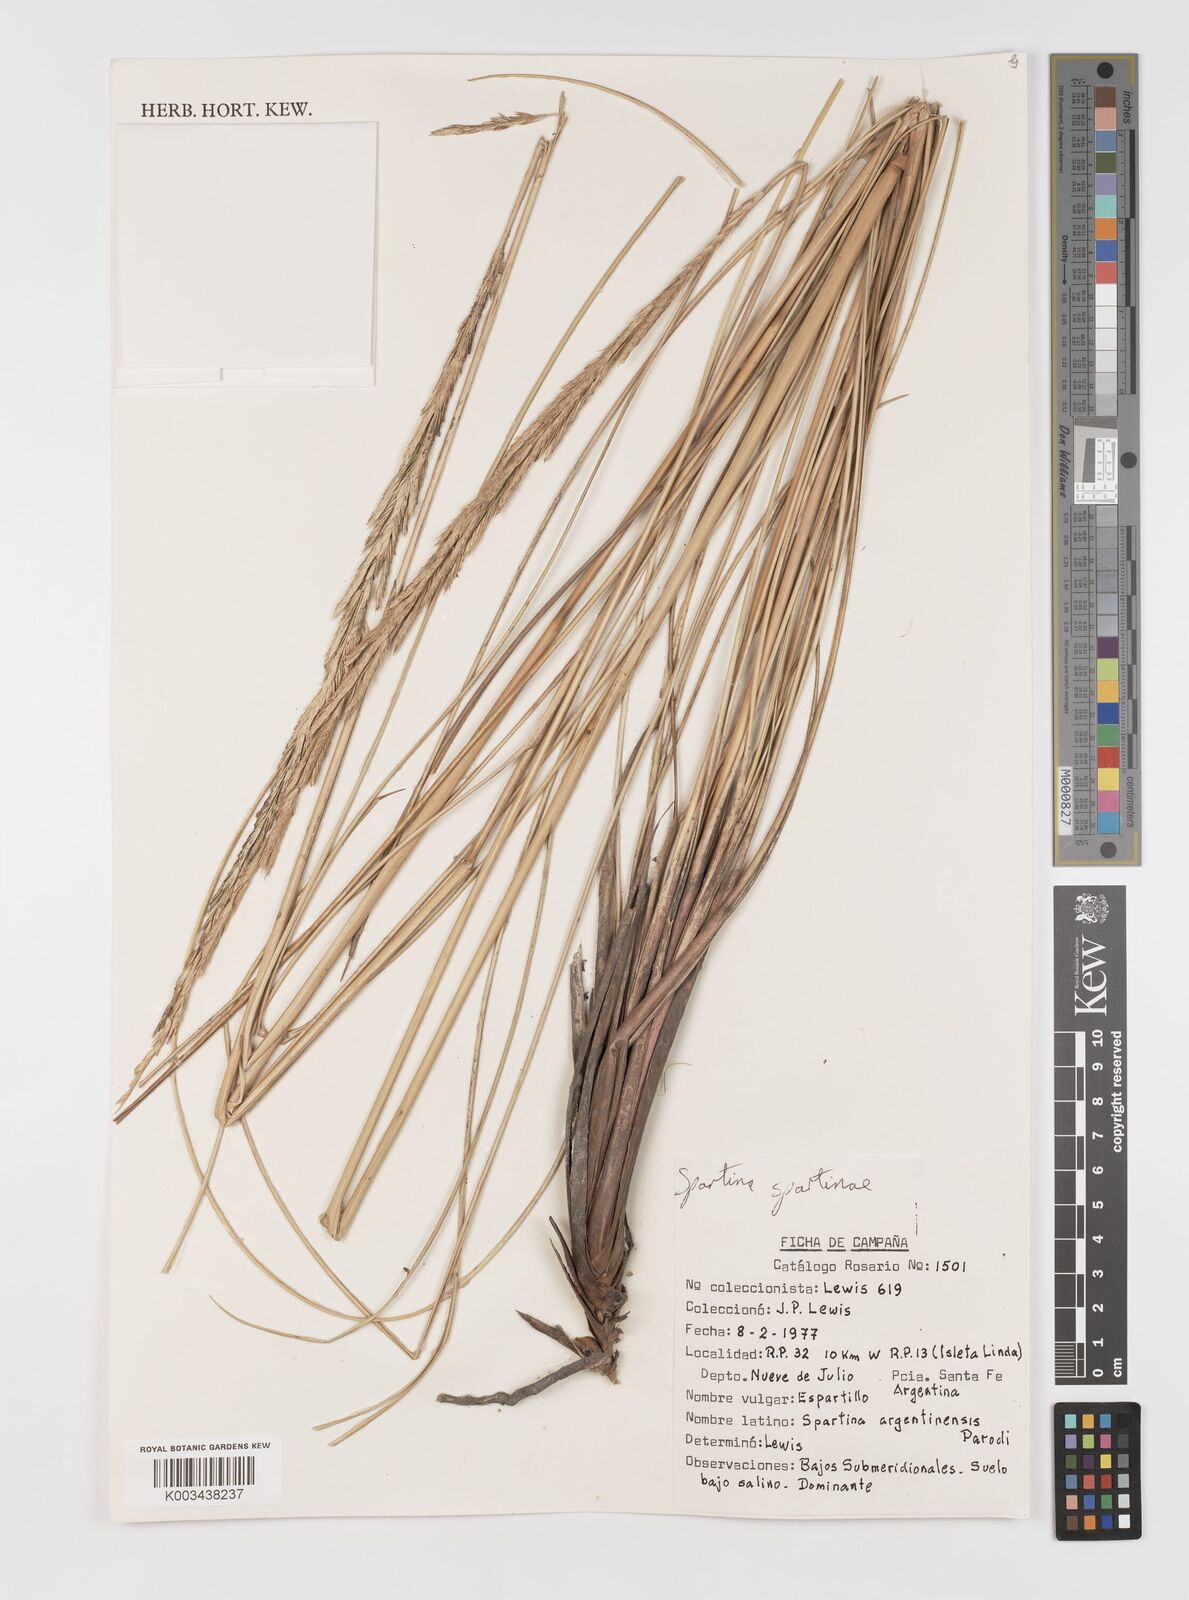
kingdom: Plantae
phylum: Tracheophyta
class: Liliopsida
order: Poales
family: Poaceae
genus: Sporobolus
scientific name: Sporobolus spartinae
